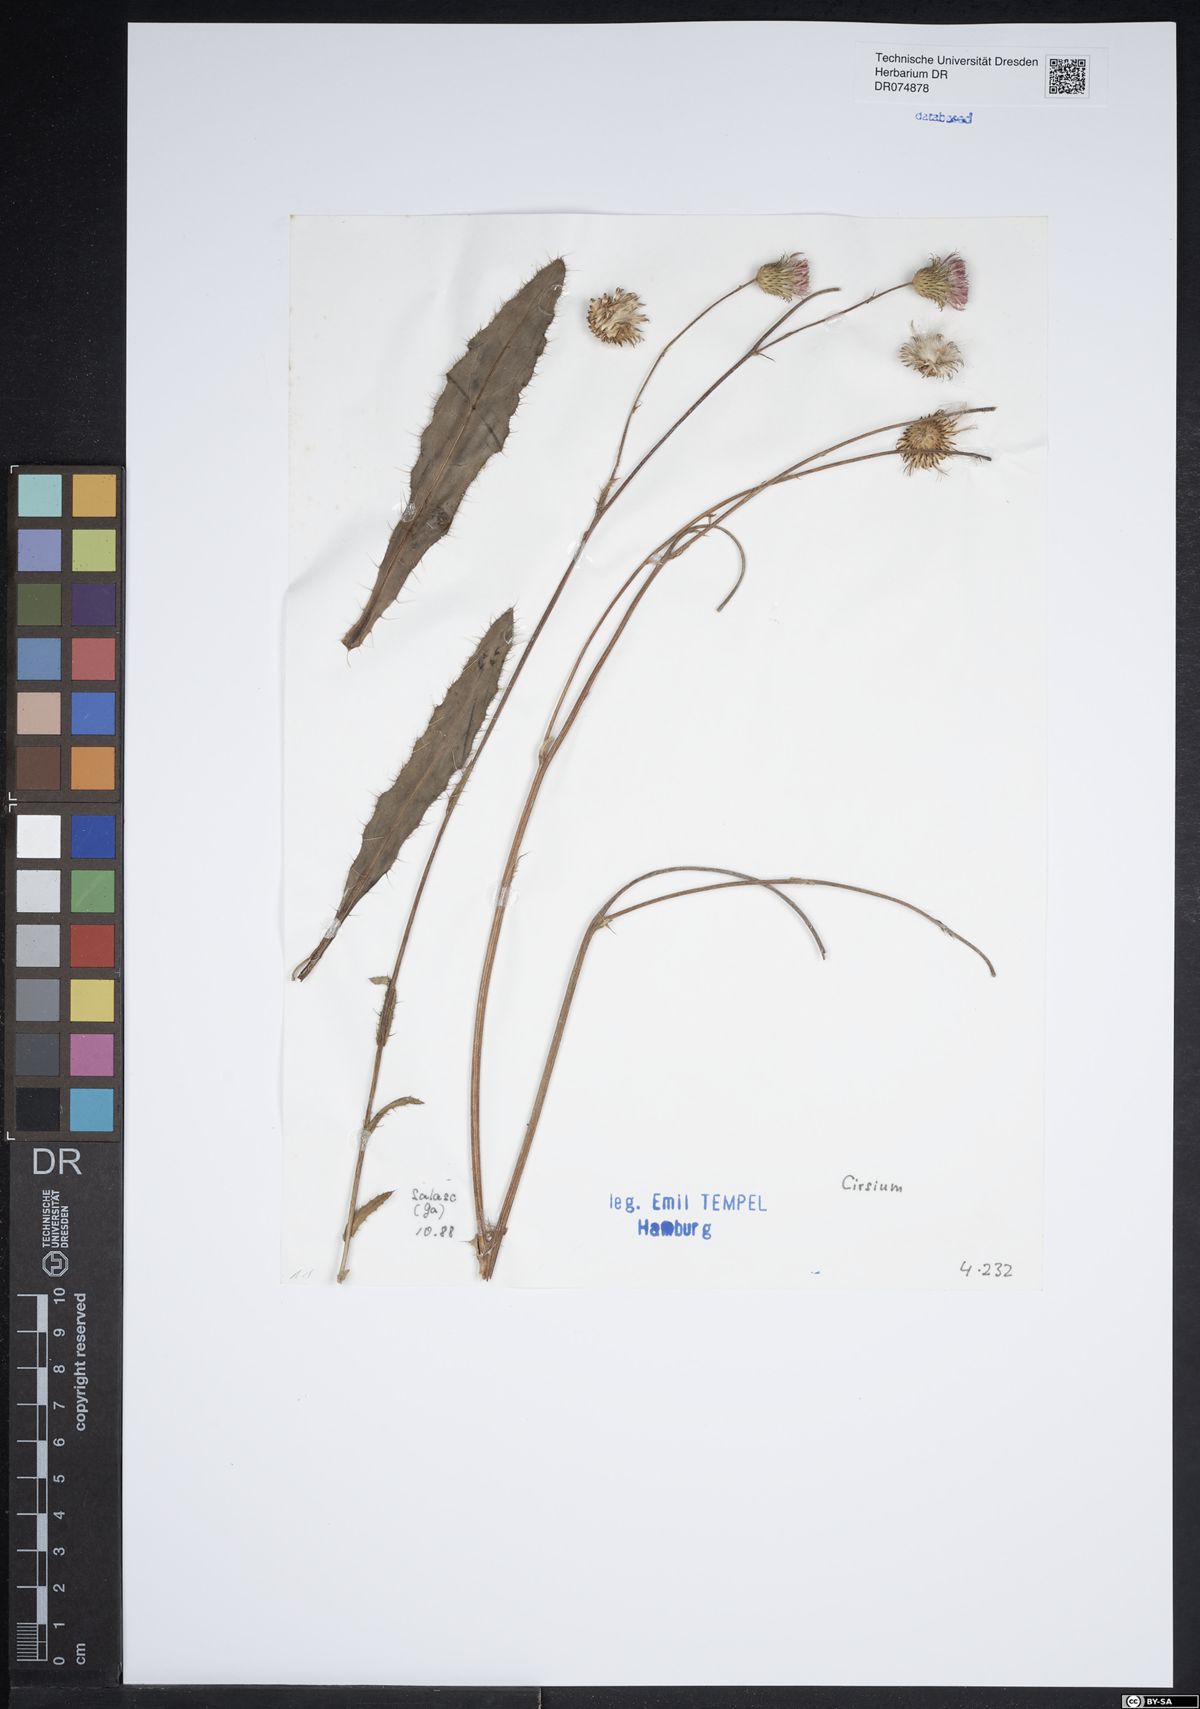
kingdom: Plantae
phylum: Tracheophyta
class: Magnoliopsida
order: Asterales
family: Asteraceae
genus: Cirsium
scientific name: Cirsium
